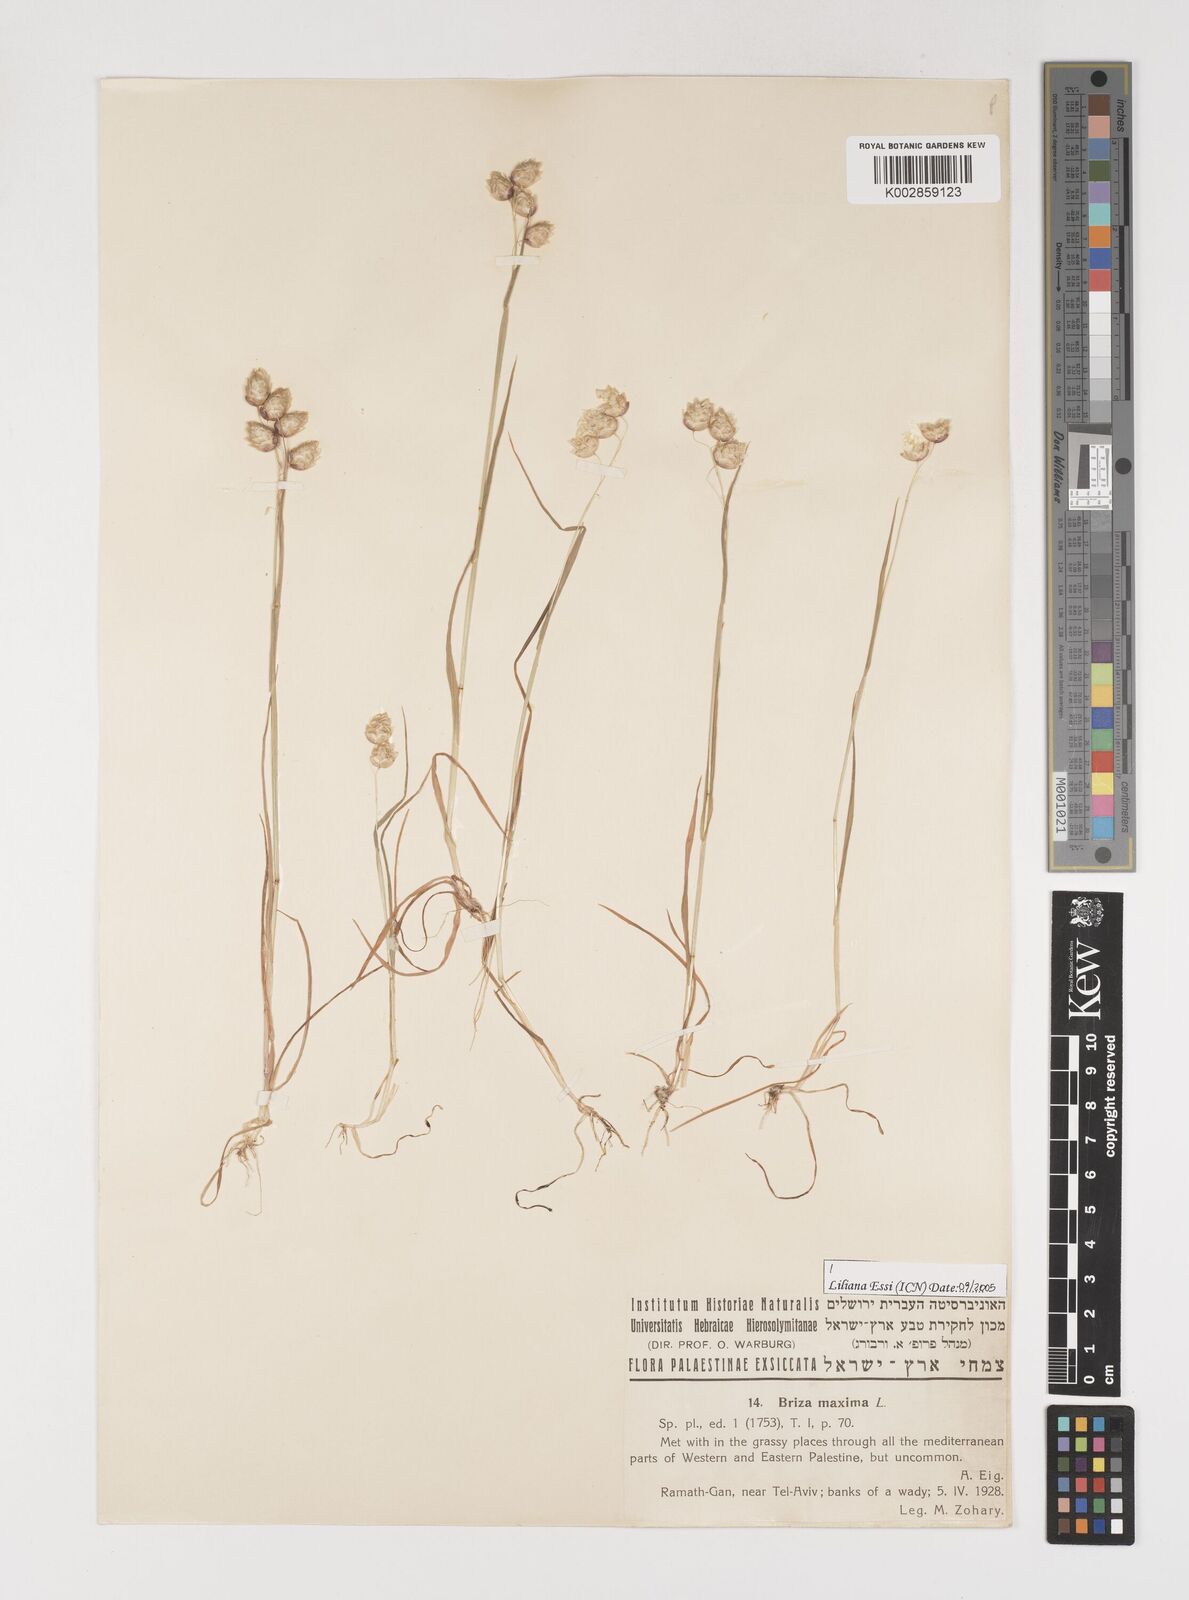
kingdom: Plantae
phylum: Tracheophyta
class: Liliopsida
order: Poales
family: Poaceae
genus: Briza
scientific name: Briza maxima
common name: Big quakinggrass
